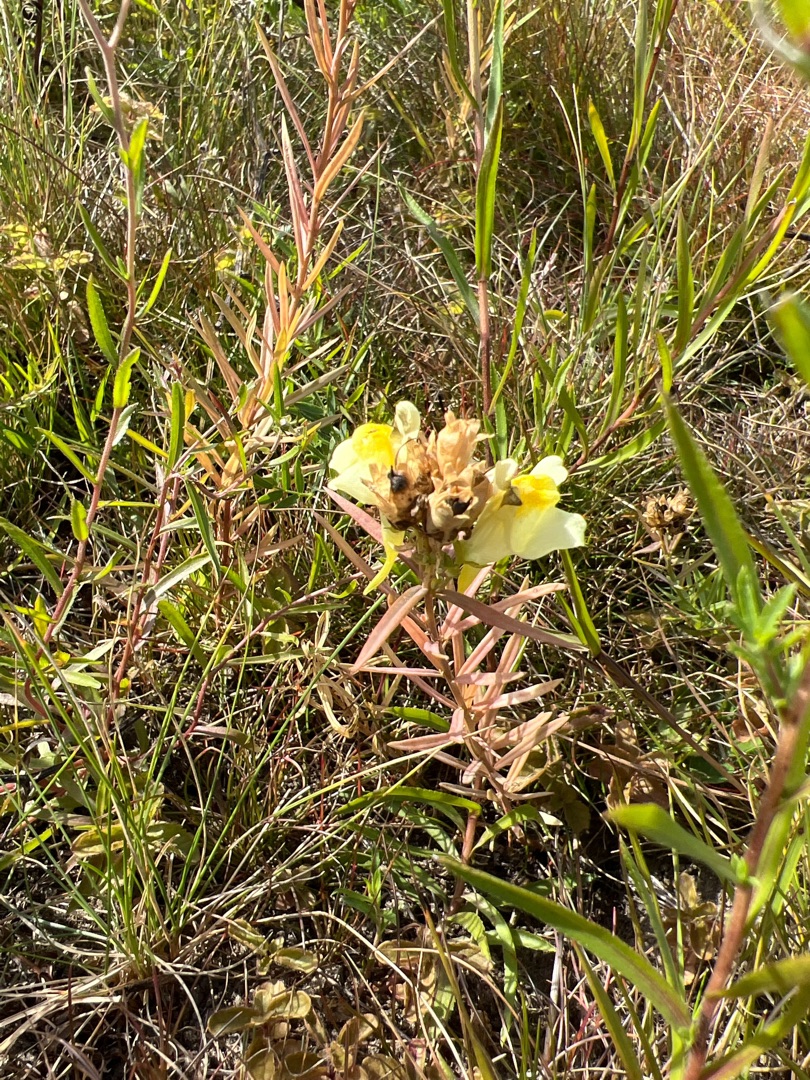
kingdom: Plantae
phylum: Tracheophyta
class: Magnoliopsida
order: Lamiales
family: Plantaginaceae
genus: Linaria
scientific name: Linaria vulgaris
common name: Almindelig torskemund
